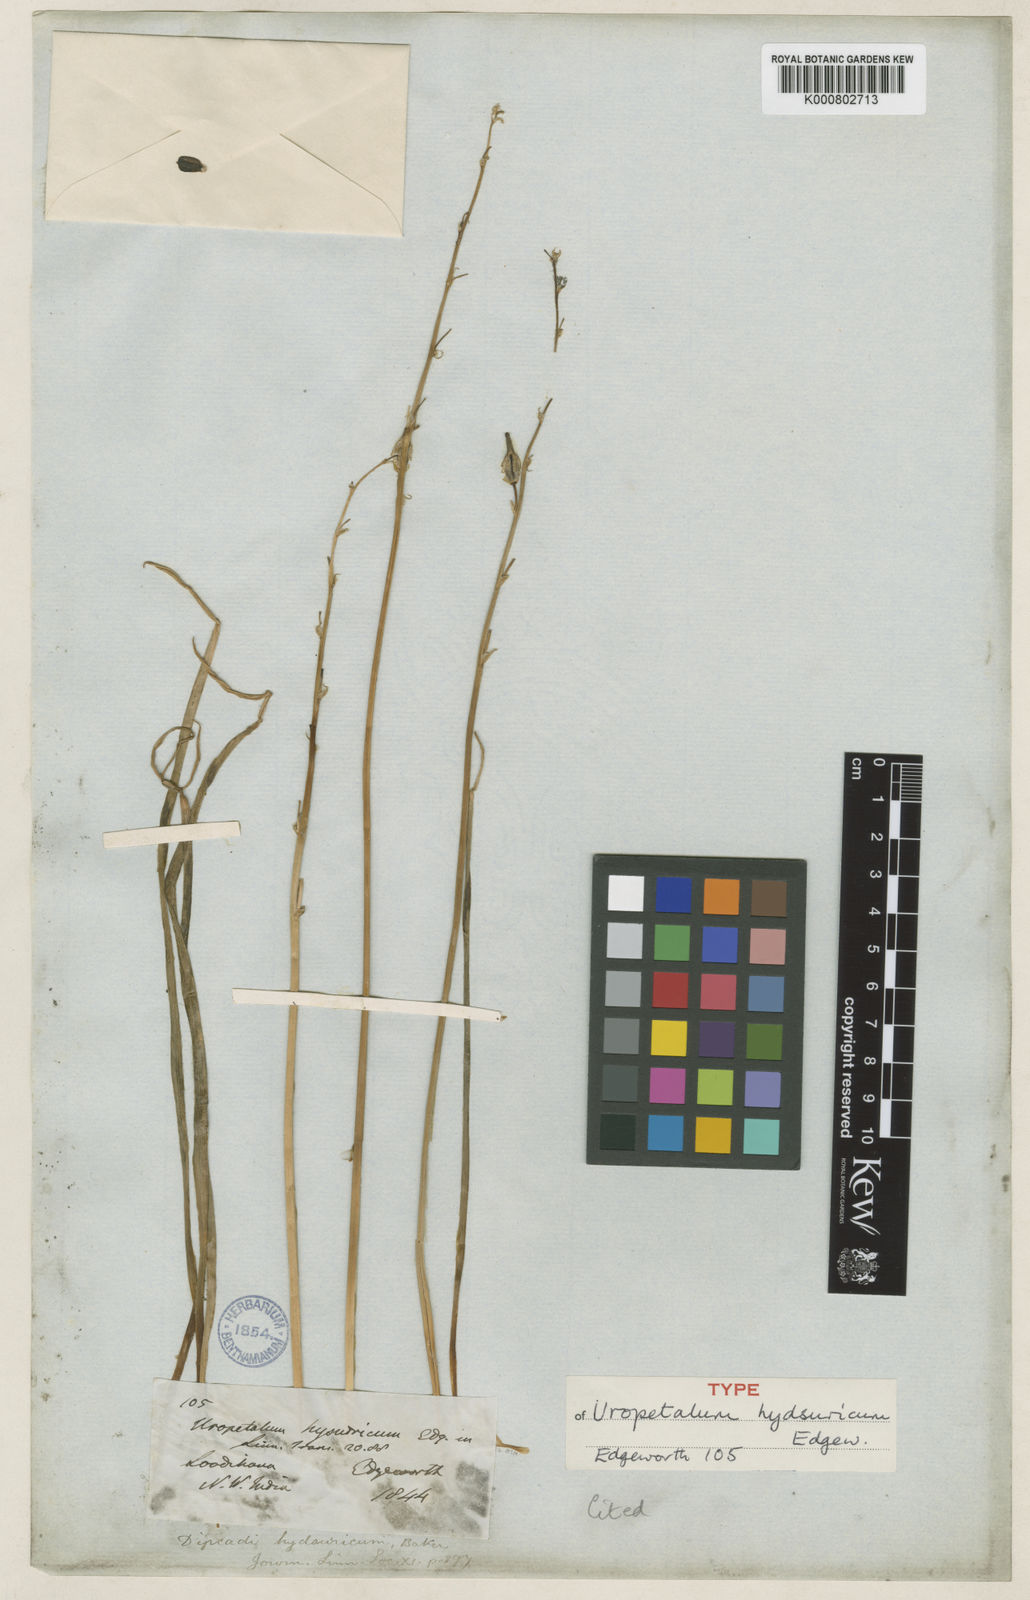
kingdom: Plantae
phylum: Tracheophyta
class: Liliopsida
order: Asparagales
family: Asparagaceae
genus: Dipcadi
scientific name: Dipcadi serotinum
